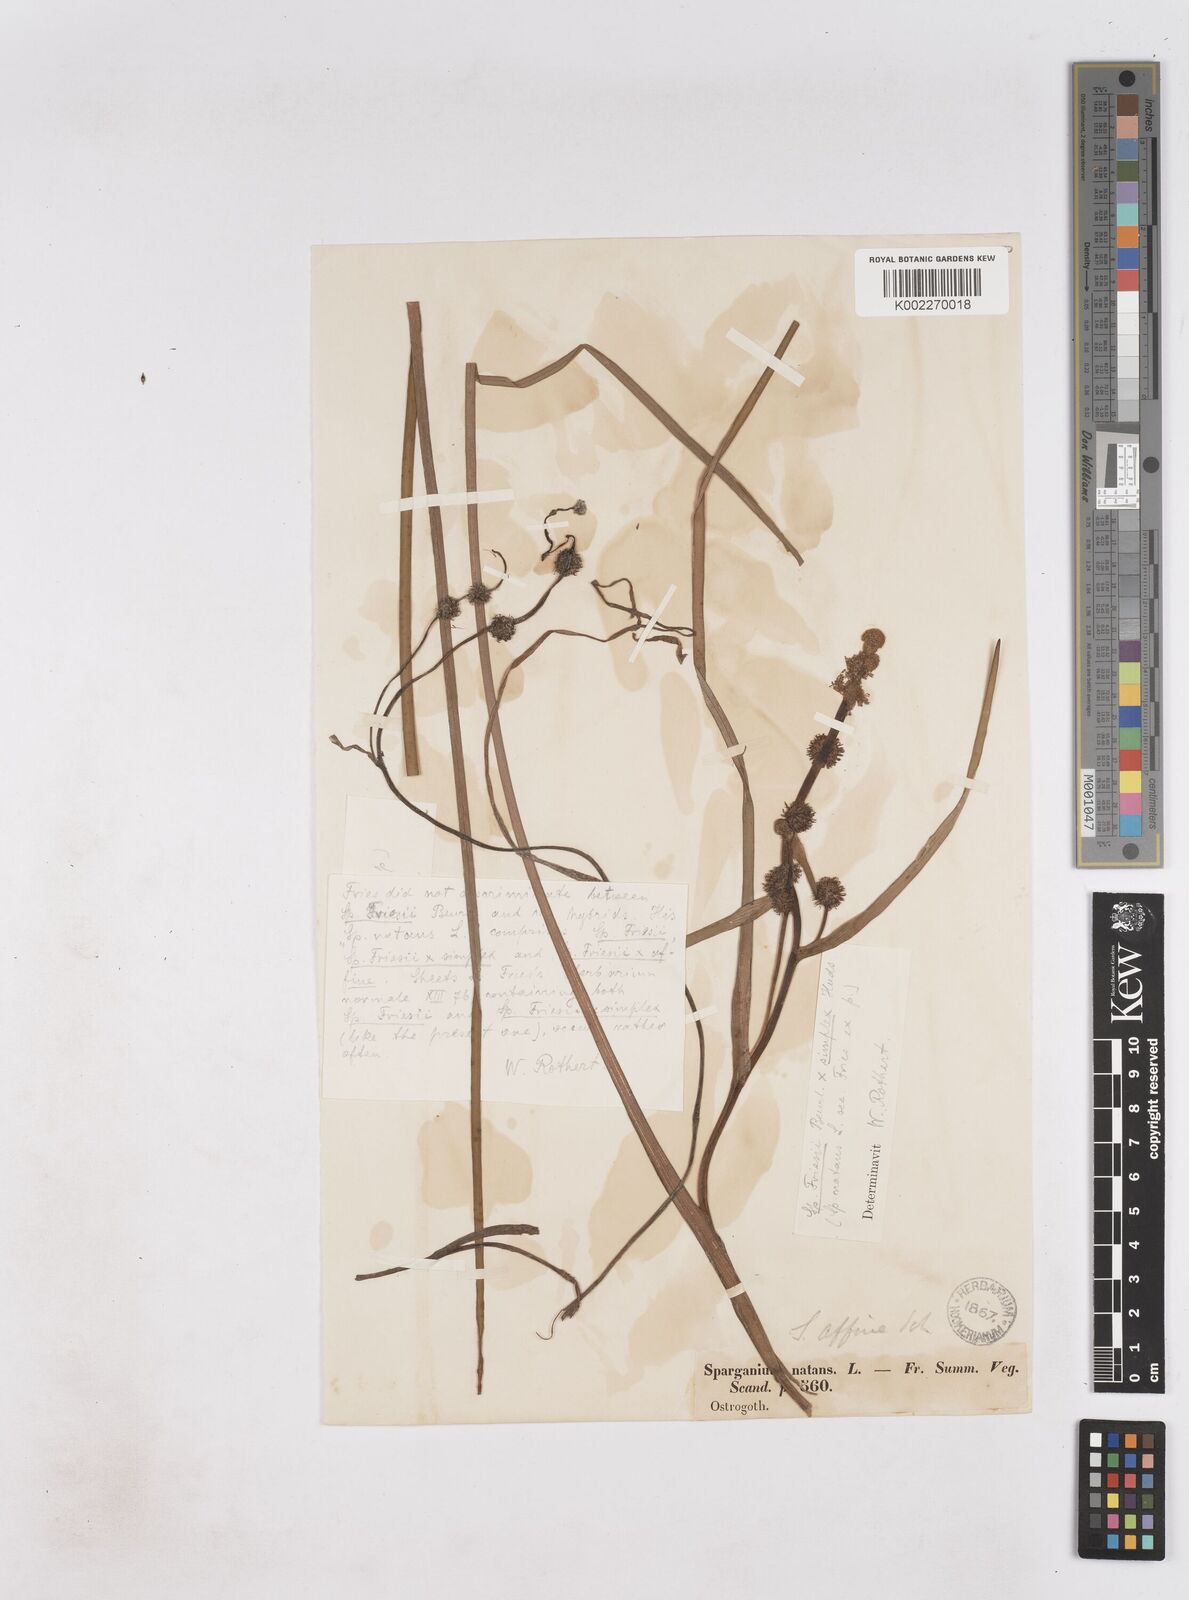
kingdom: Plantae
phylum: Tracheophyta
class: Liliopsida
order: Poales
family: Typhaceae
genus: Sparganium
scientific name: Sparganium gramineum
